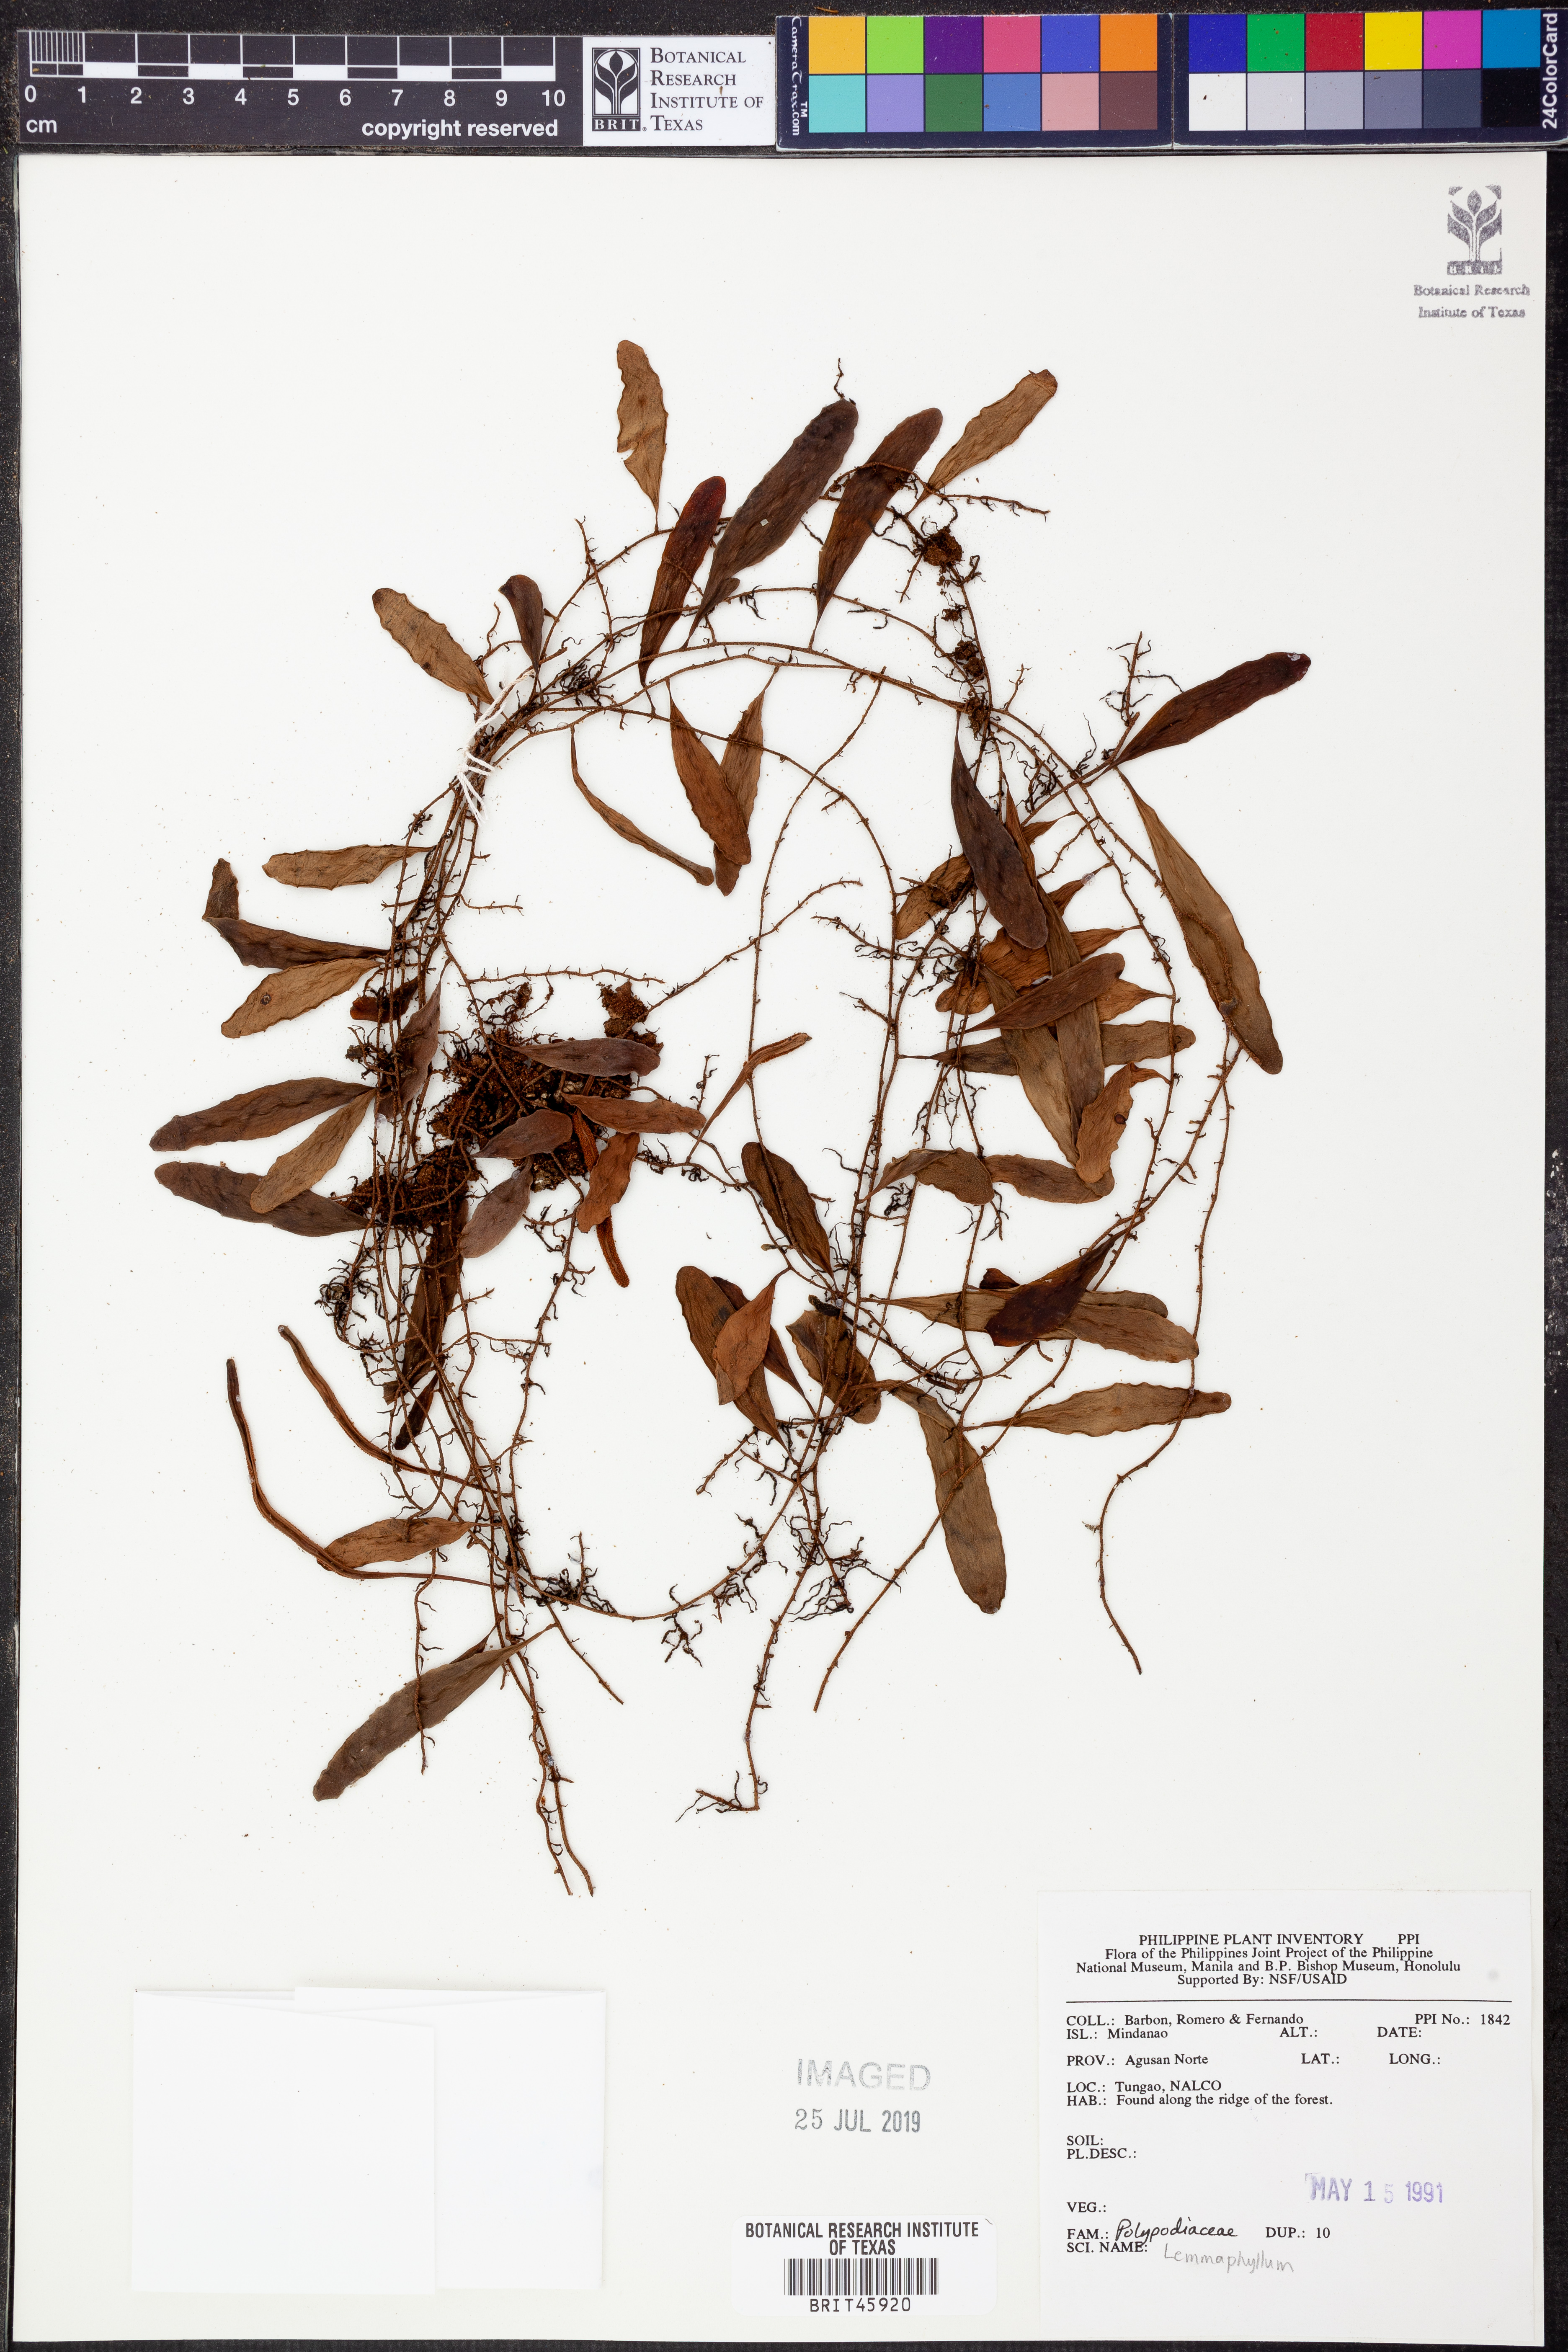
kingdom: Plantae
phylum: Tracheophyta
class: Polypodiopsida
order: Polypodiales
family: Polypodiaceae
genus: Lemmaphyllum
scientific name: Lemmaphyllum
